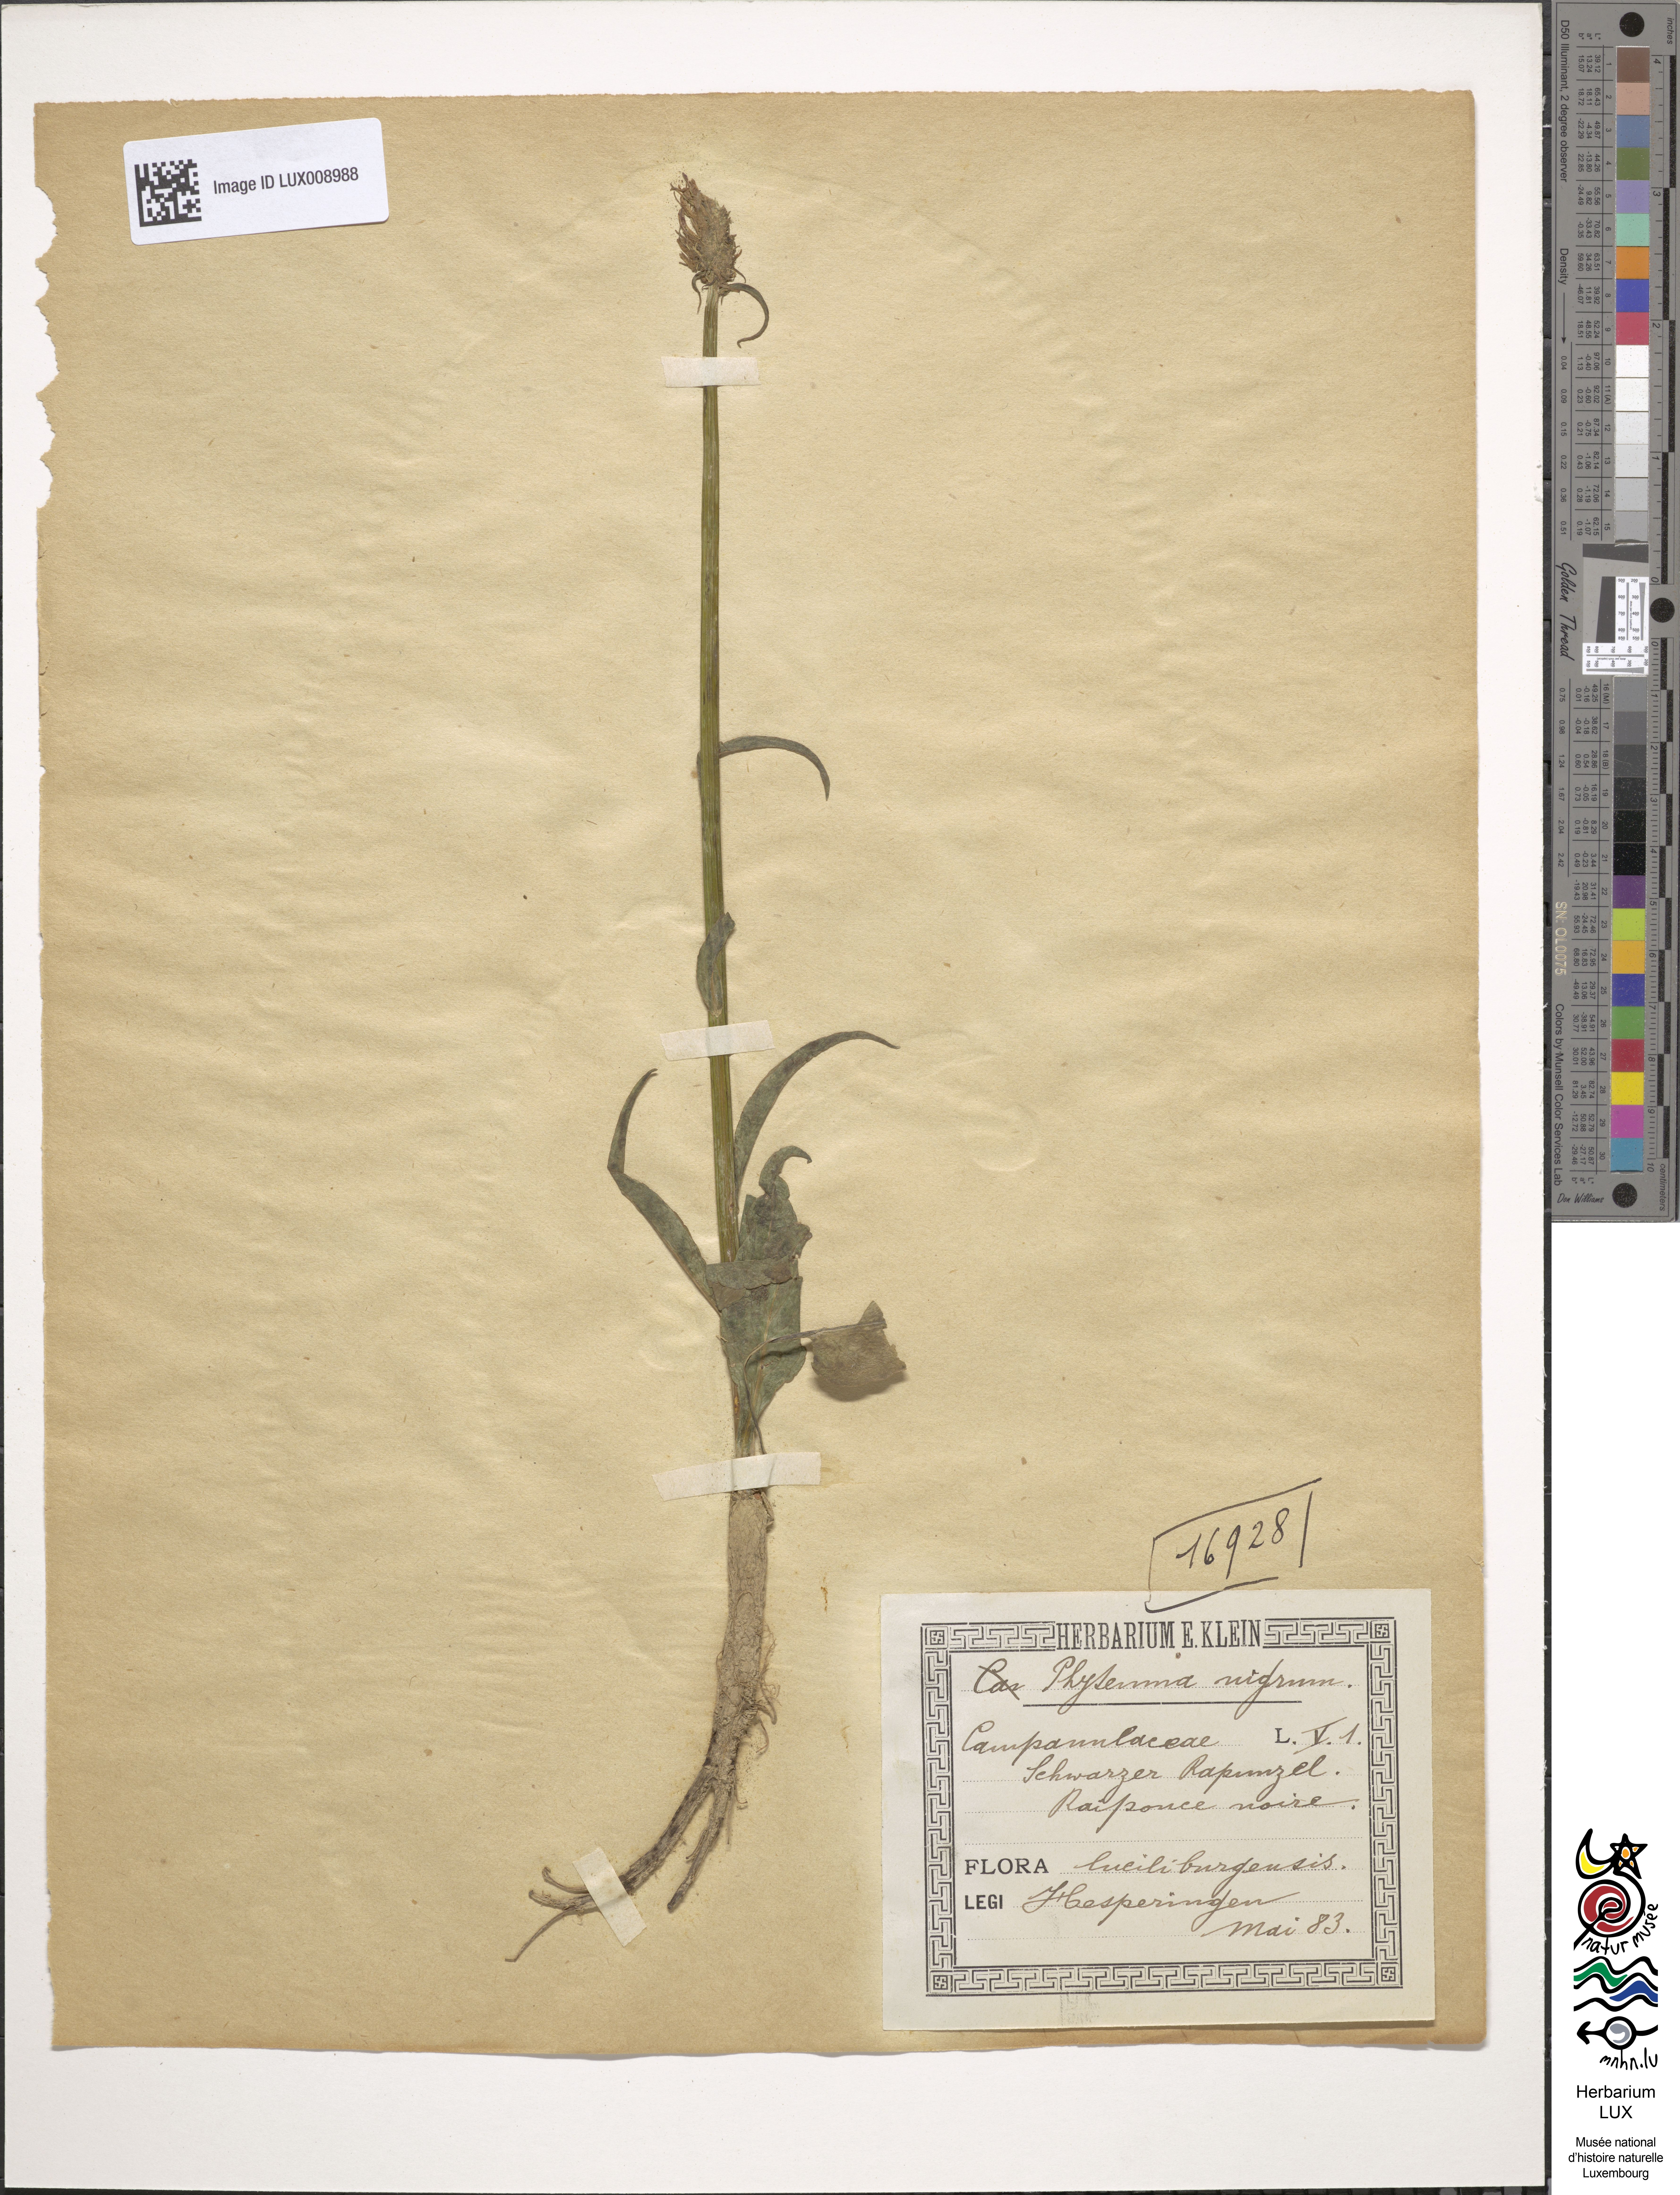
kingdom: Plantae
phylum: Tracheophyta
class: Magnoliopsida
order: Asterales
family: Campanulaceae
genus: Phyteuma
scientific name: Phyteuma nigrum
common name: Black rampion
